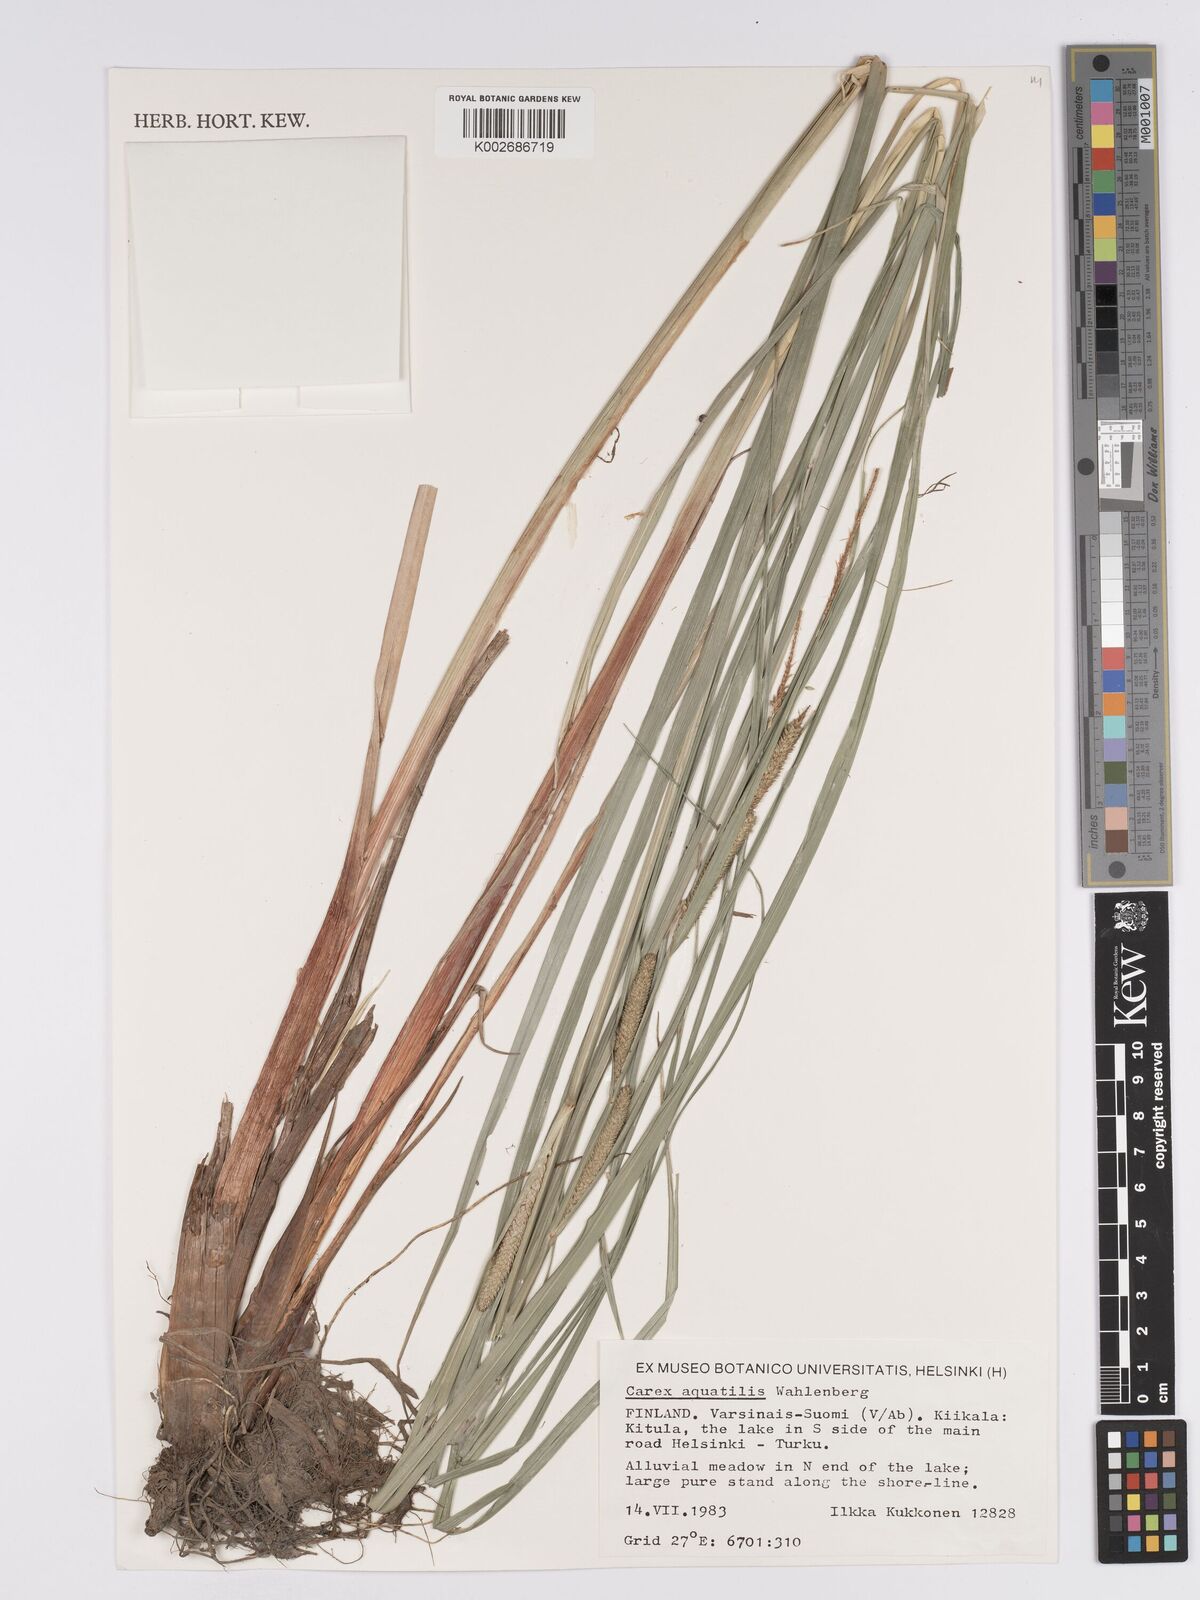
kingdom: Plantae
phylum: Tracheophyta
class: Liliopsida
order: Poales
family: Cyperaceae
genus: Carex
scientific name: Carex aquatilis
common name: Water sedge
